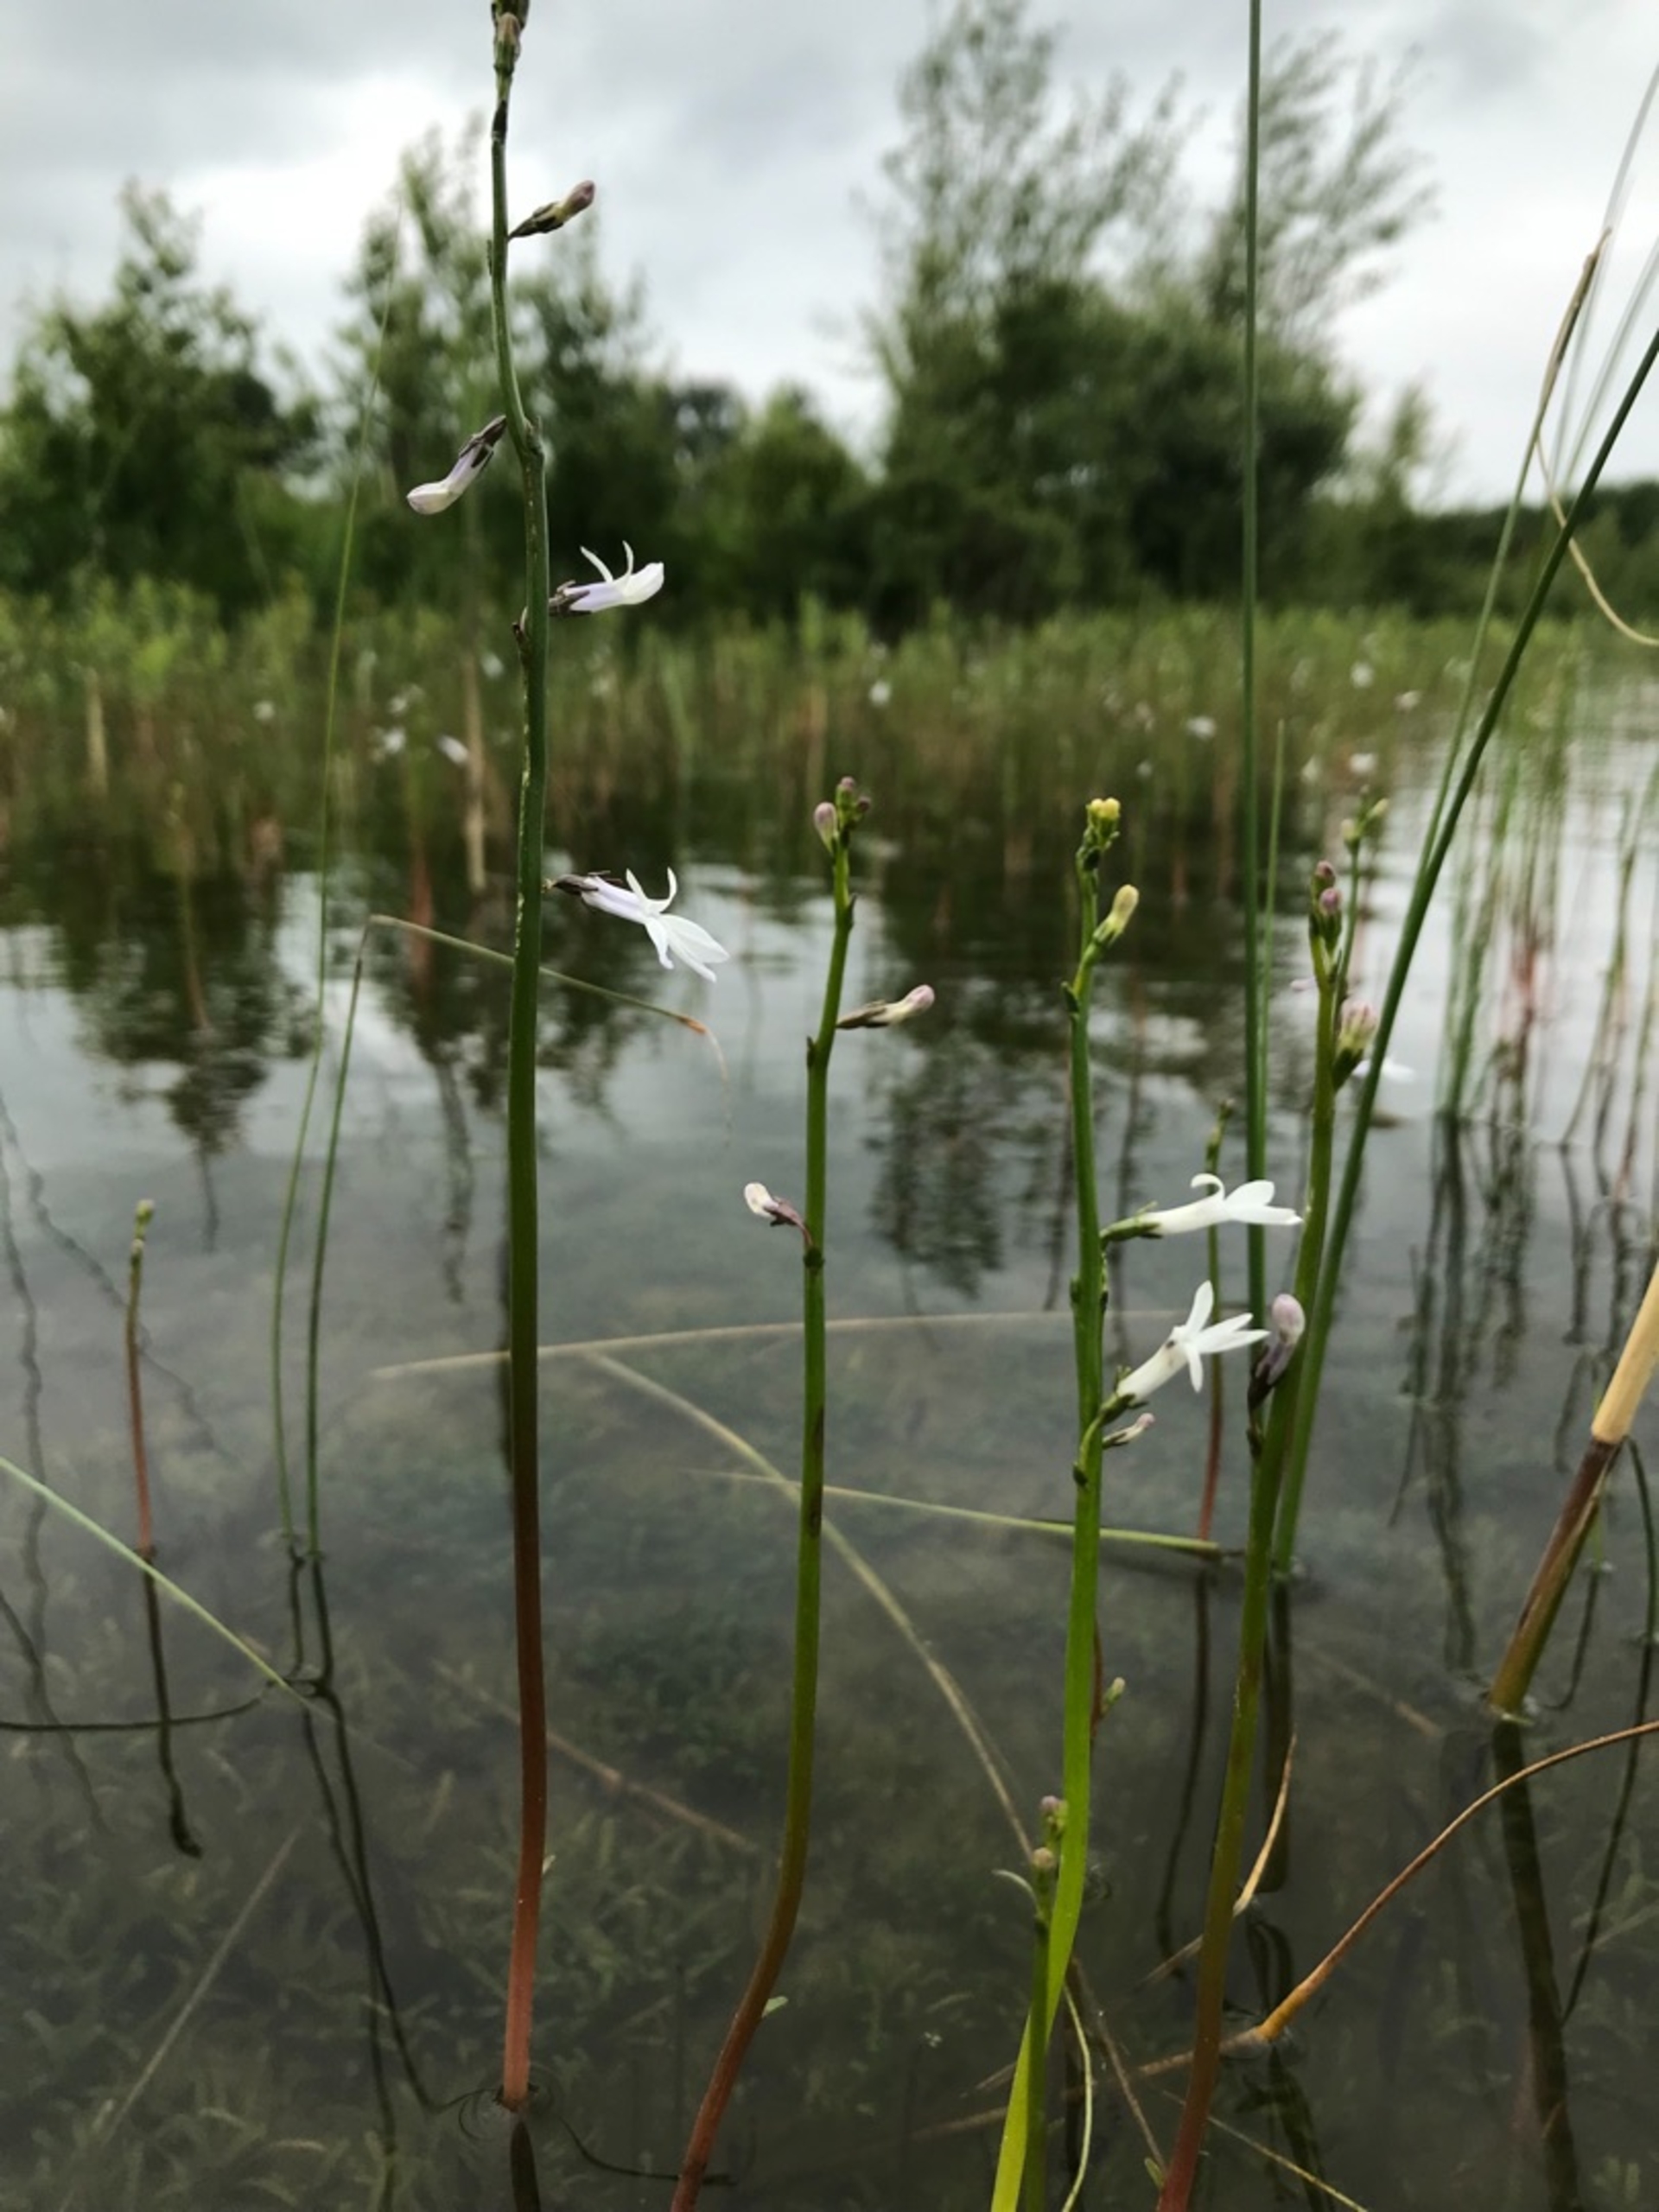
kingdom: Plantae
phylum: Tracheophyta
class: Magnoliopsida
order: Asterales
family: Campanulaceae
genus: Lobelia
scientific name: Lobelia dortmanna
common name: Tvepibet lobelie
